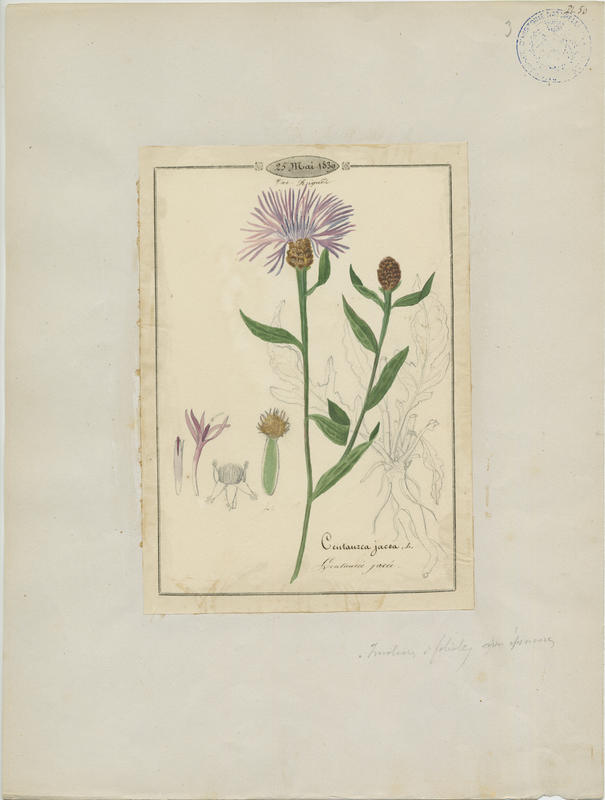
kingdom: Plantae
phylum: Tracheophyta
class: Magnoliopsida
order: Asterales
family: Asteraceae
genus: Centaurea
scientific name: Centaurea jacea
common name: Brown knapweed
